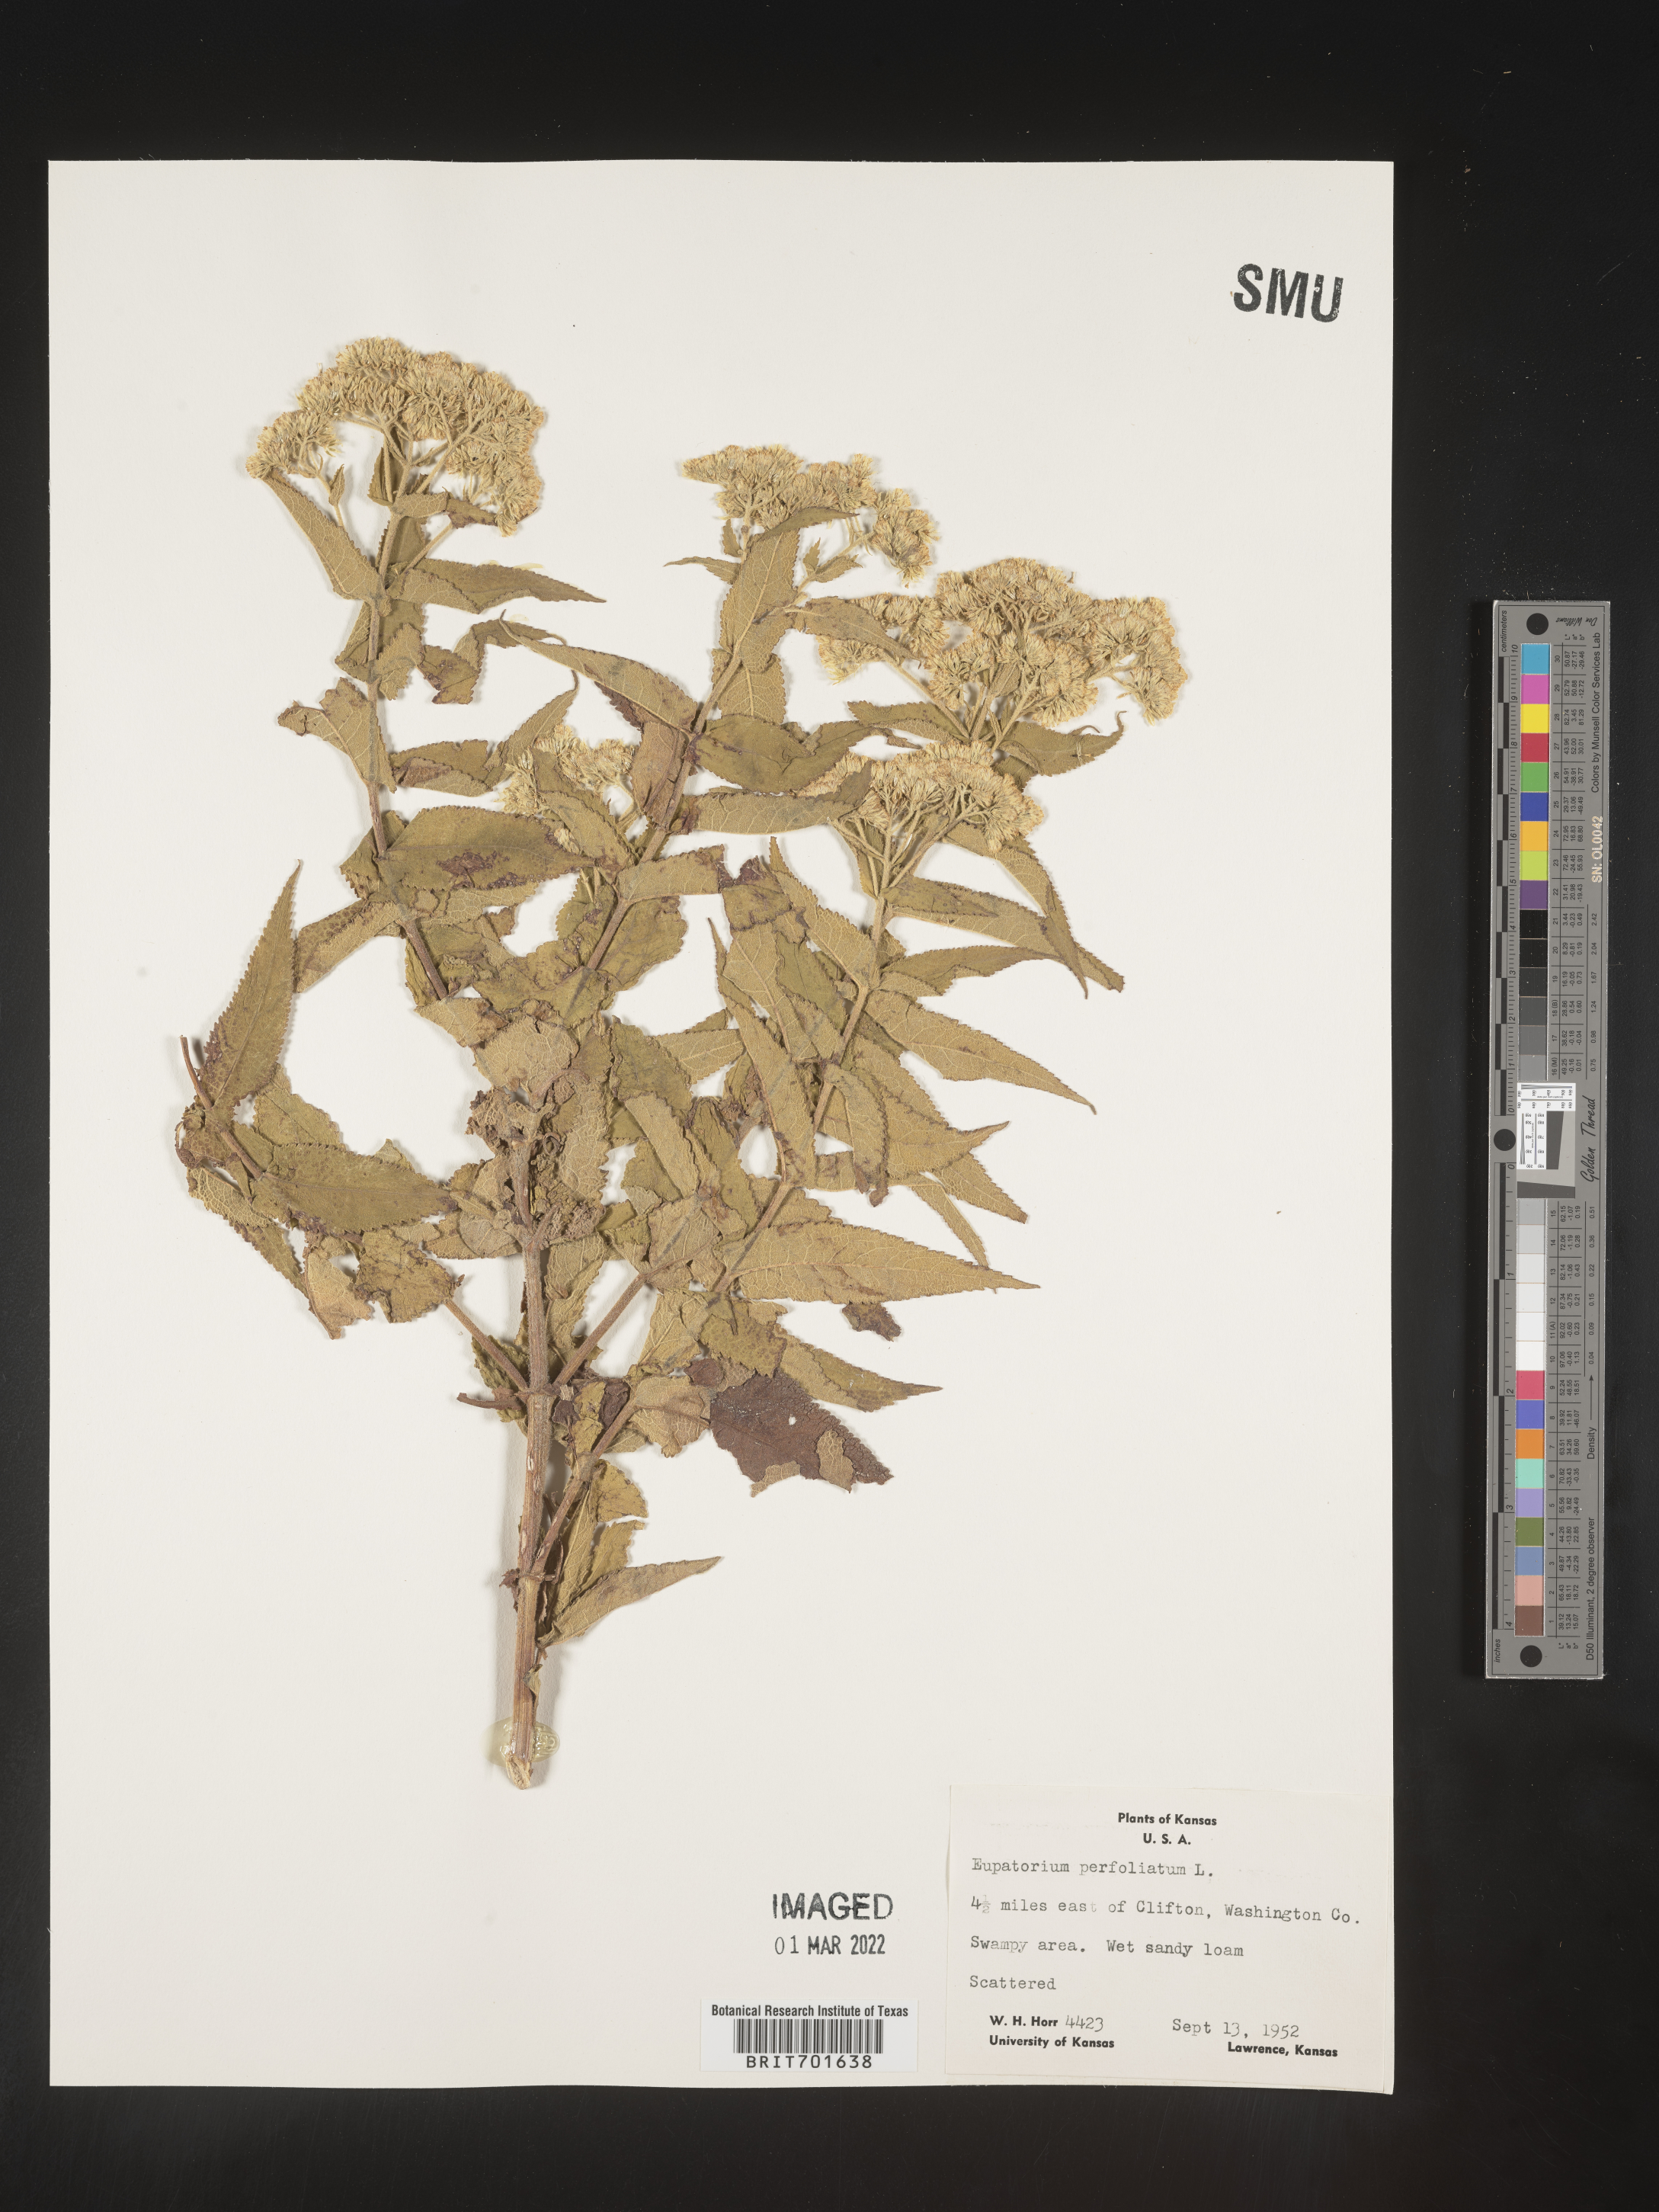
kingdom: Plantae
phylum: Tracheophyta
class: Magnoliopsida
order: Asterales
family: Asteraceae
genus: Eupatorium
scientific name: Eupatorium perfoliatum
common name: Boneset
